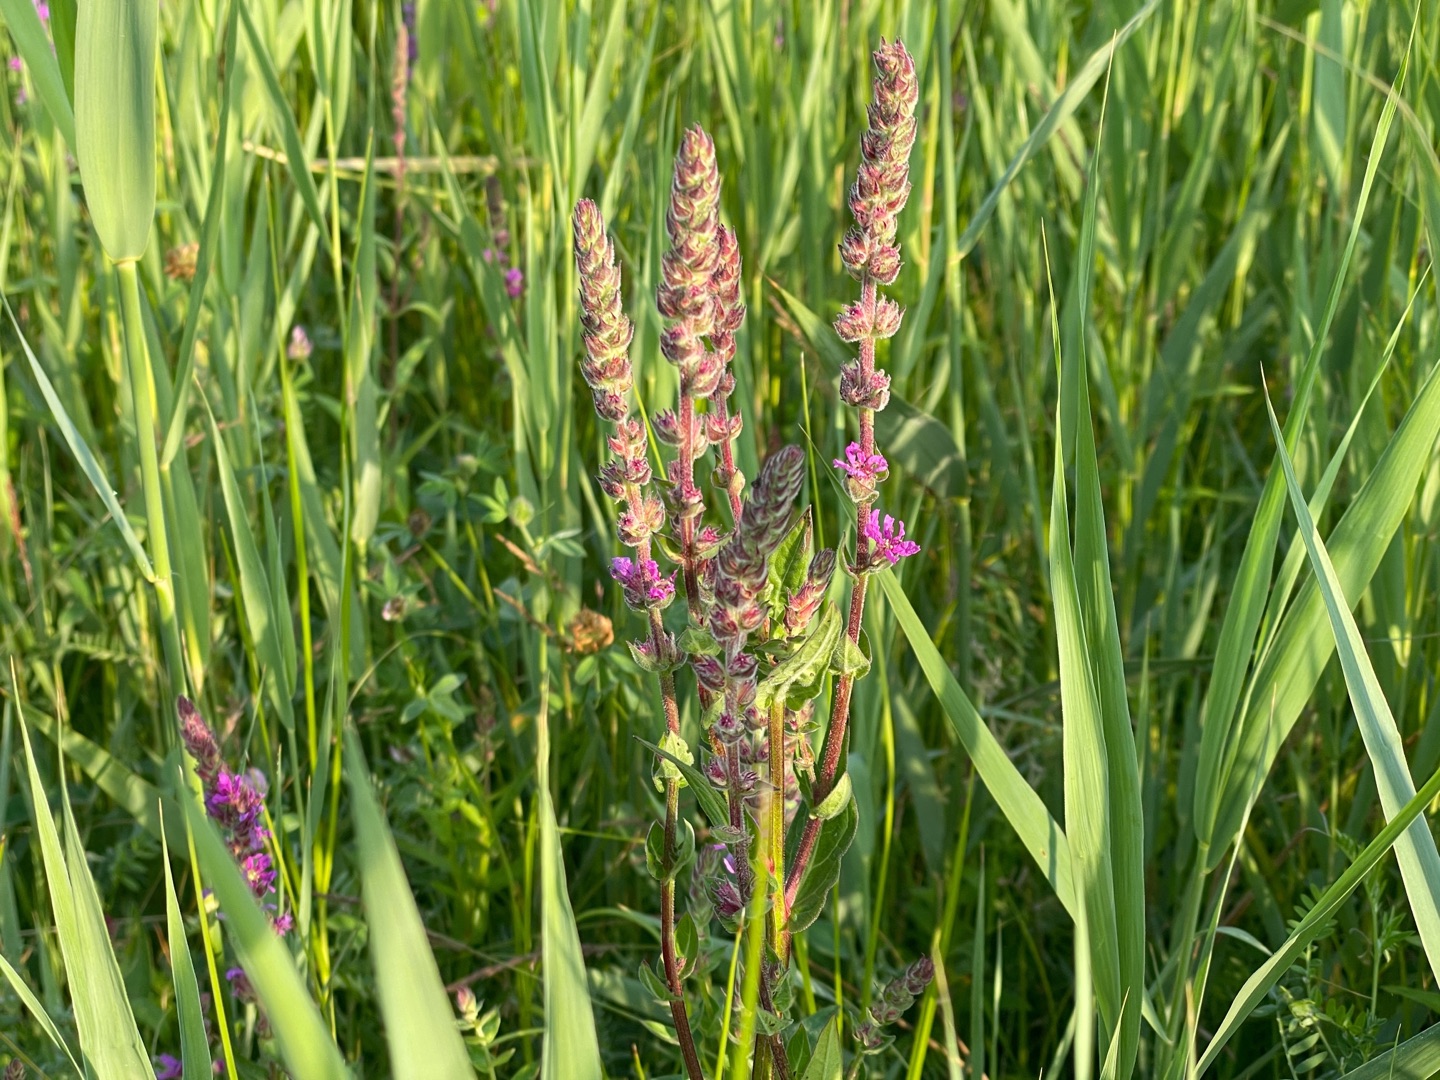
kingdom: Plantae
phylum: Tracheophyta
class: Magnoliopsida
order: Myrtales
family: Lythraceae
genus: Lythrum
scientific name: Lythrum salicaria
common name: Kattehale
